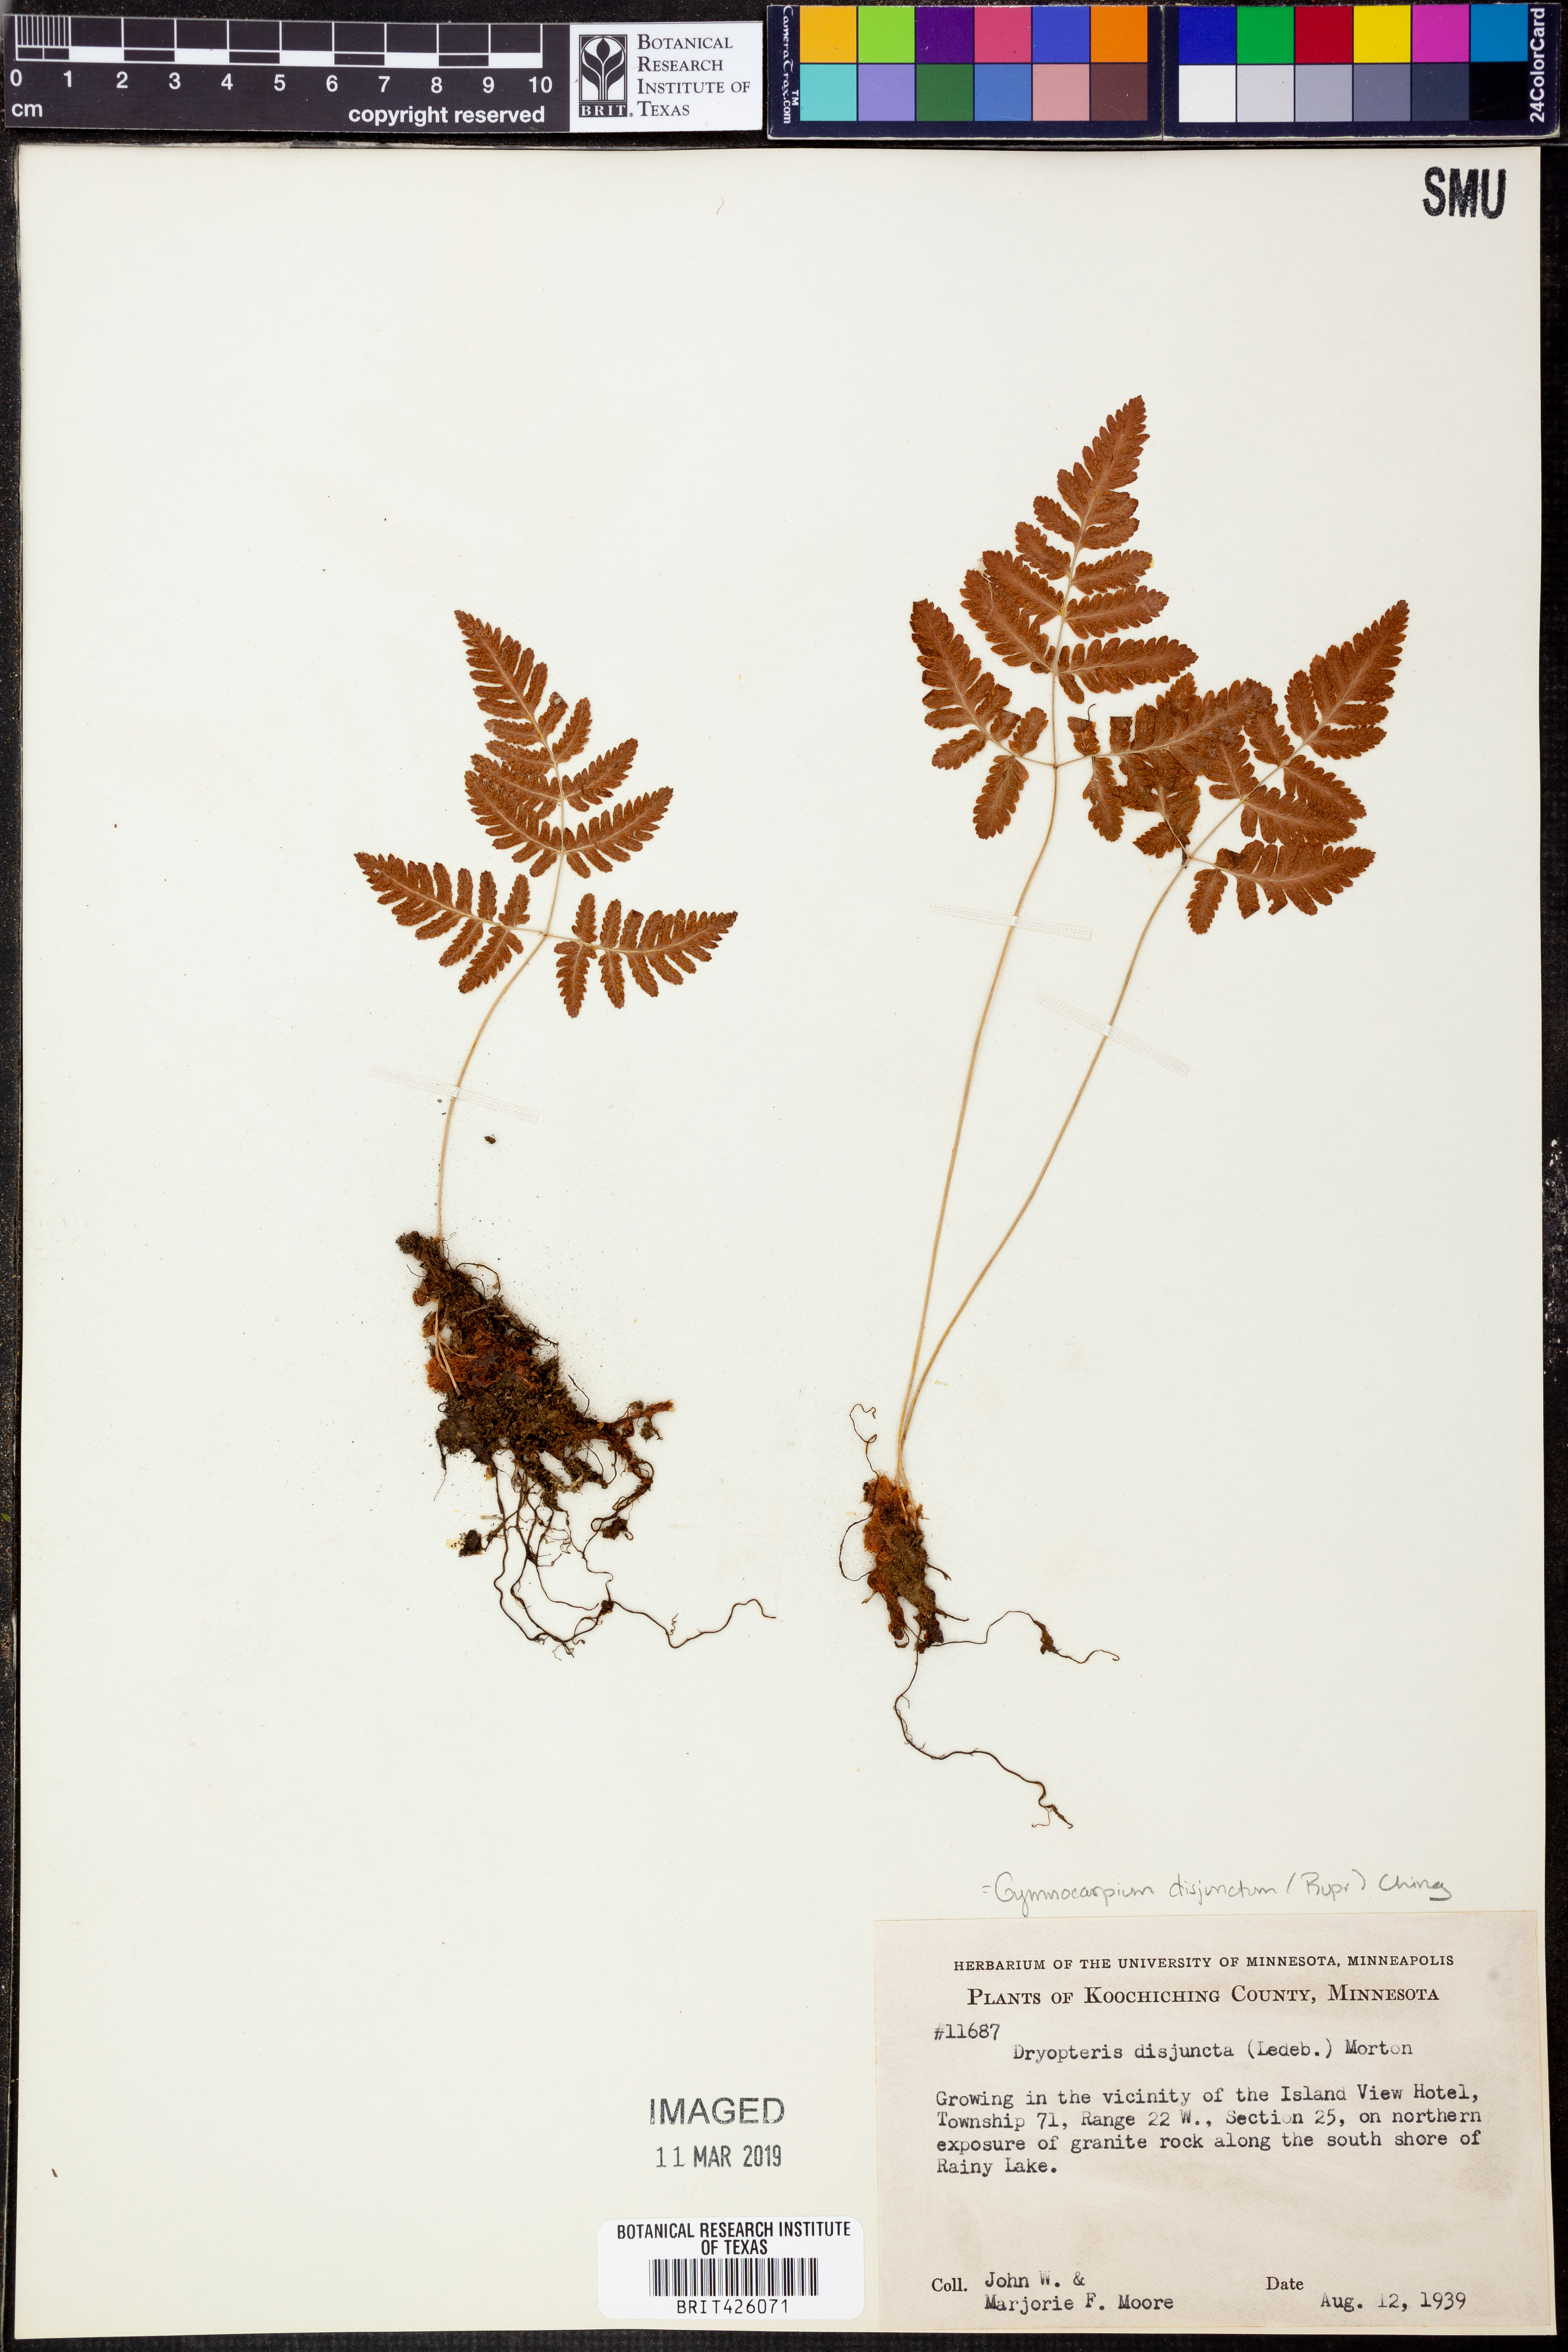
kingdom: Plantae
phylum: Tracheophyta
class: Polypodiopsida
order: Polypodiales
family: Cystopteridaceae
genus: Gymnocarpium
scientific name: Gymnocarpium disjunctum
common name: Western oak fern
